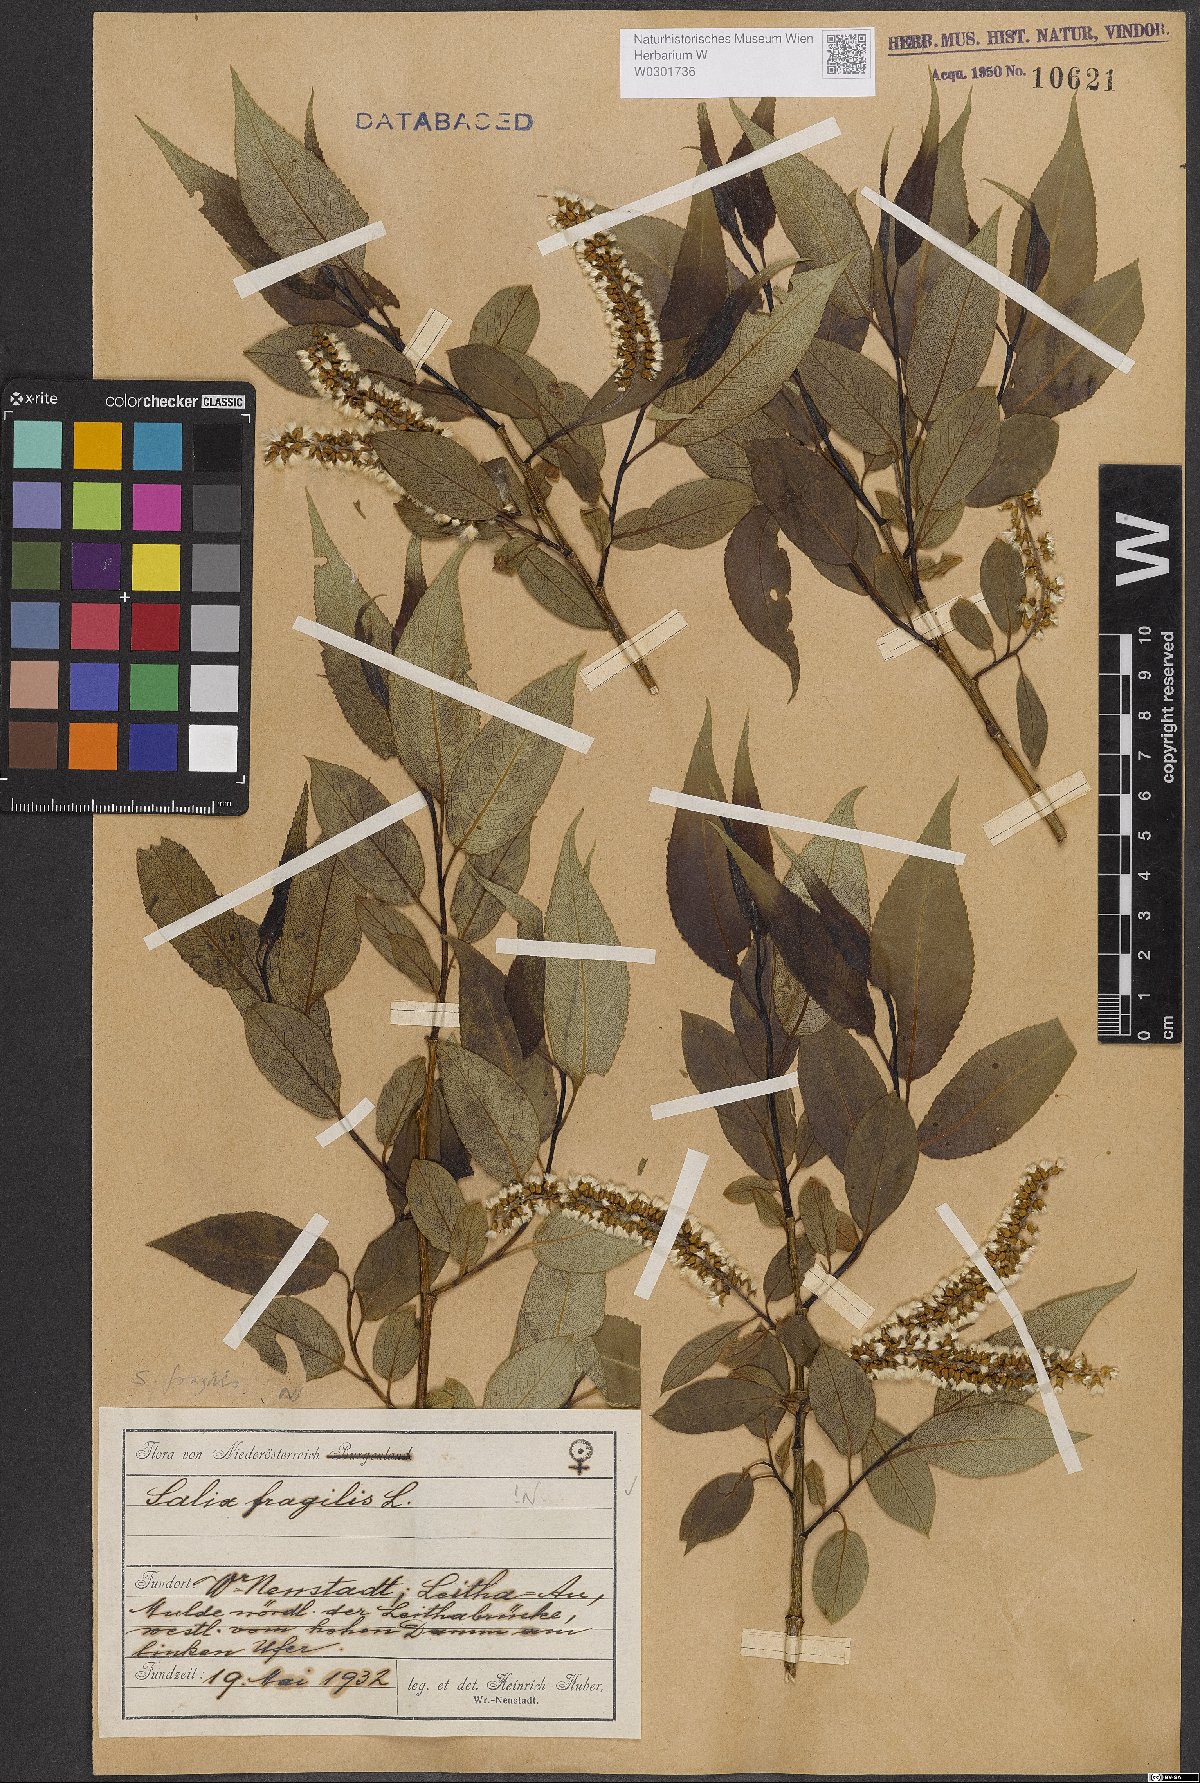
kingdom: Plantae
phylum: Tracheophyta
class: Magnoliopsida
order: Malpighiales
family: Salicaceae
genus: Salix
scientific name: Salix fragilis
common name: Crack willow
